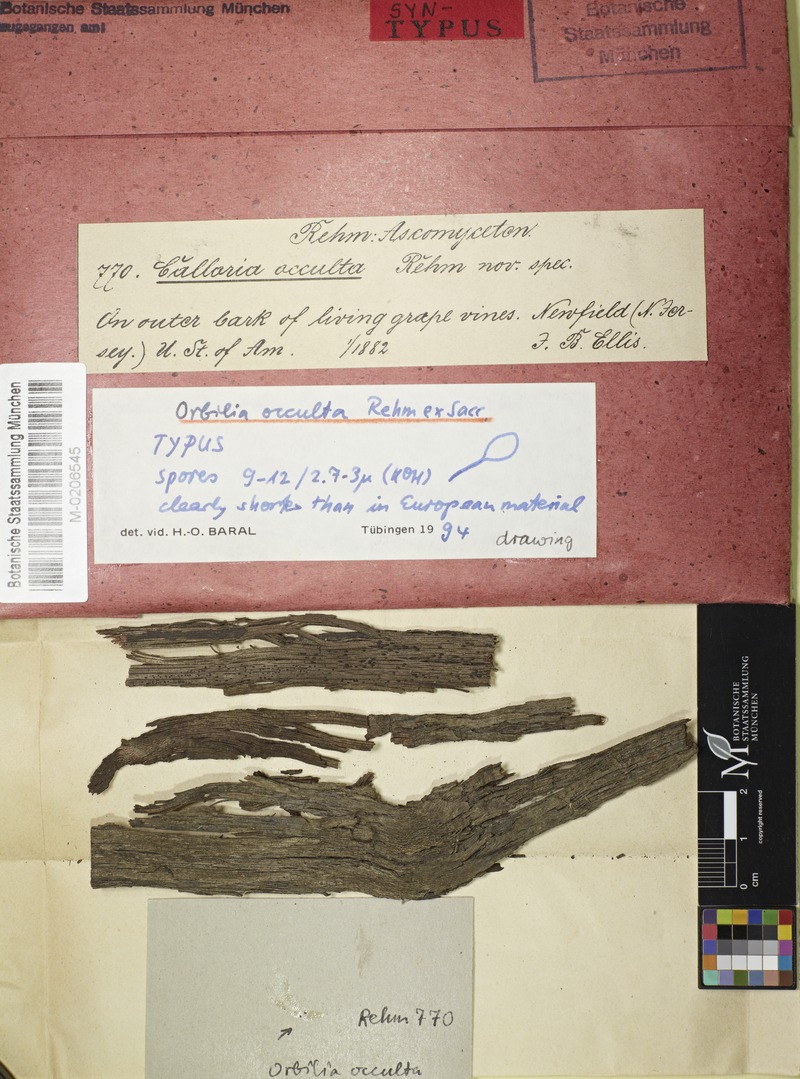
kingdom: Fungi
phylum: Ascomycota
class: Orbiliomycetes
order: Orbiliales
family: Orbiliaceae
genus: Orbilia
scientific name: Orbilia cruenta
